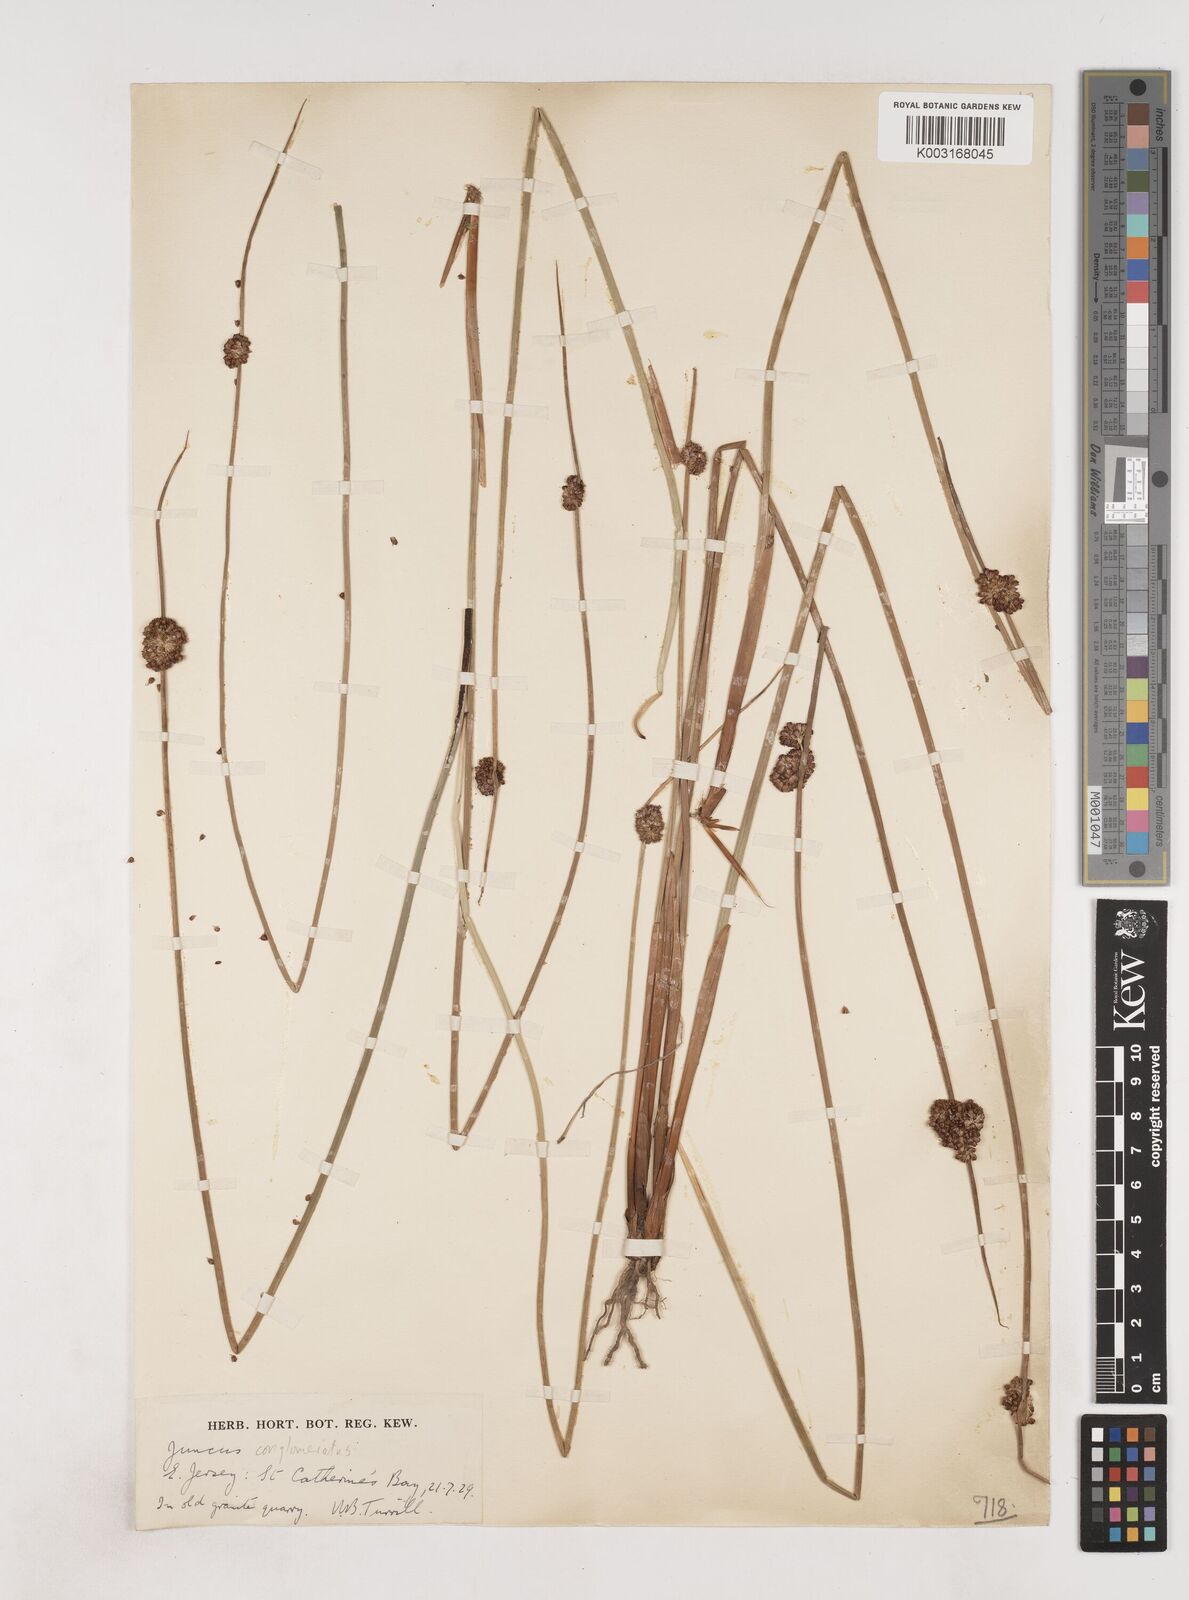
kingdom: Plantae
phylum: Tracheophyta
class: Liliopsida
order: Poales
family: Juncaceae
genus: Juncus
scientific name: Juncus conglomeratus
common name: Compact rush
